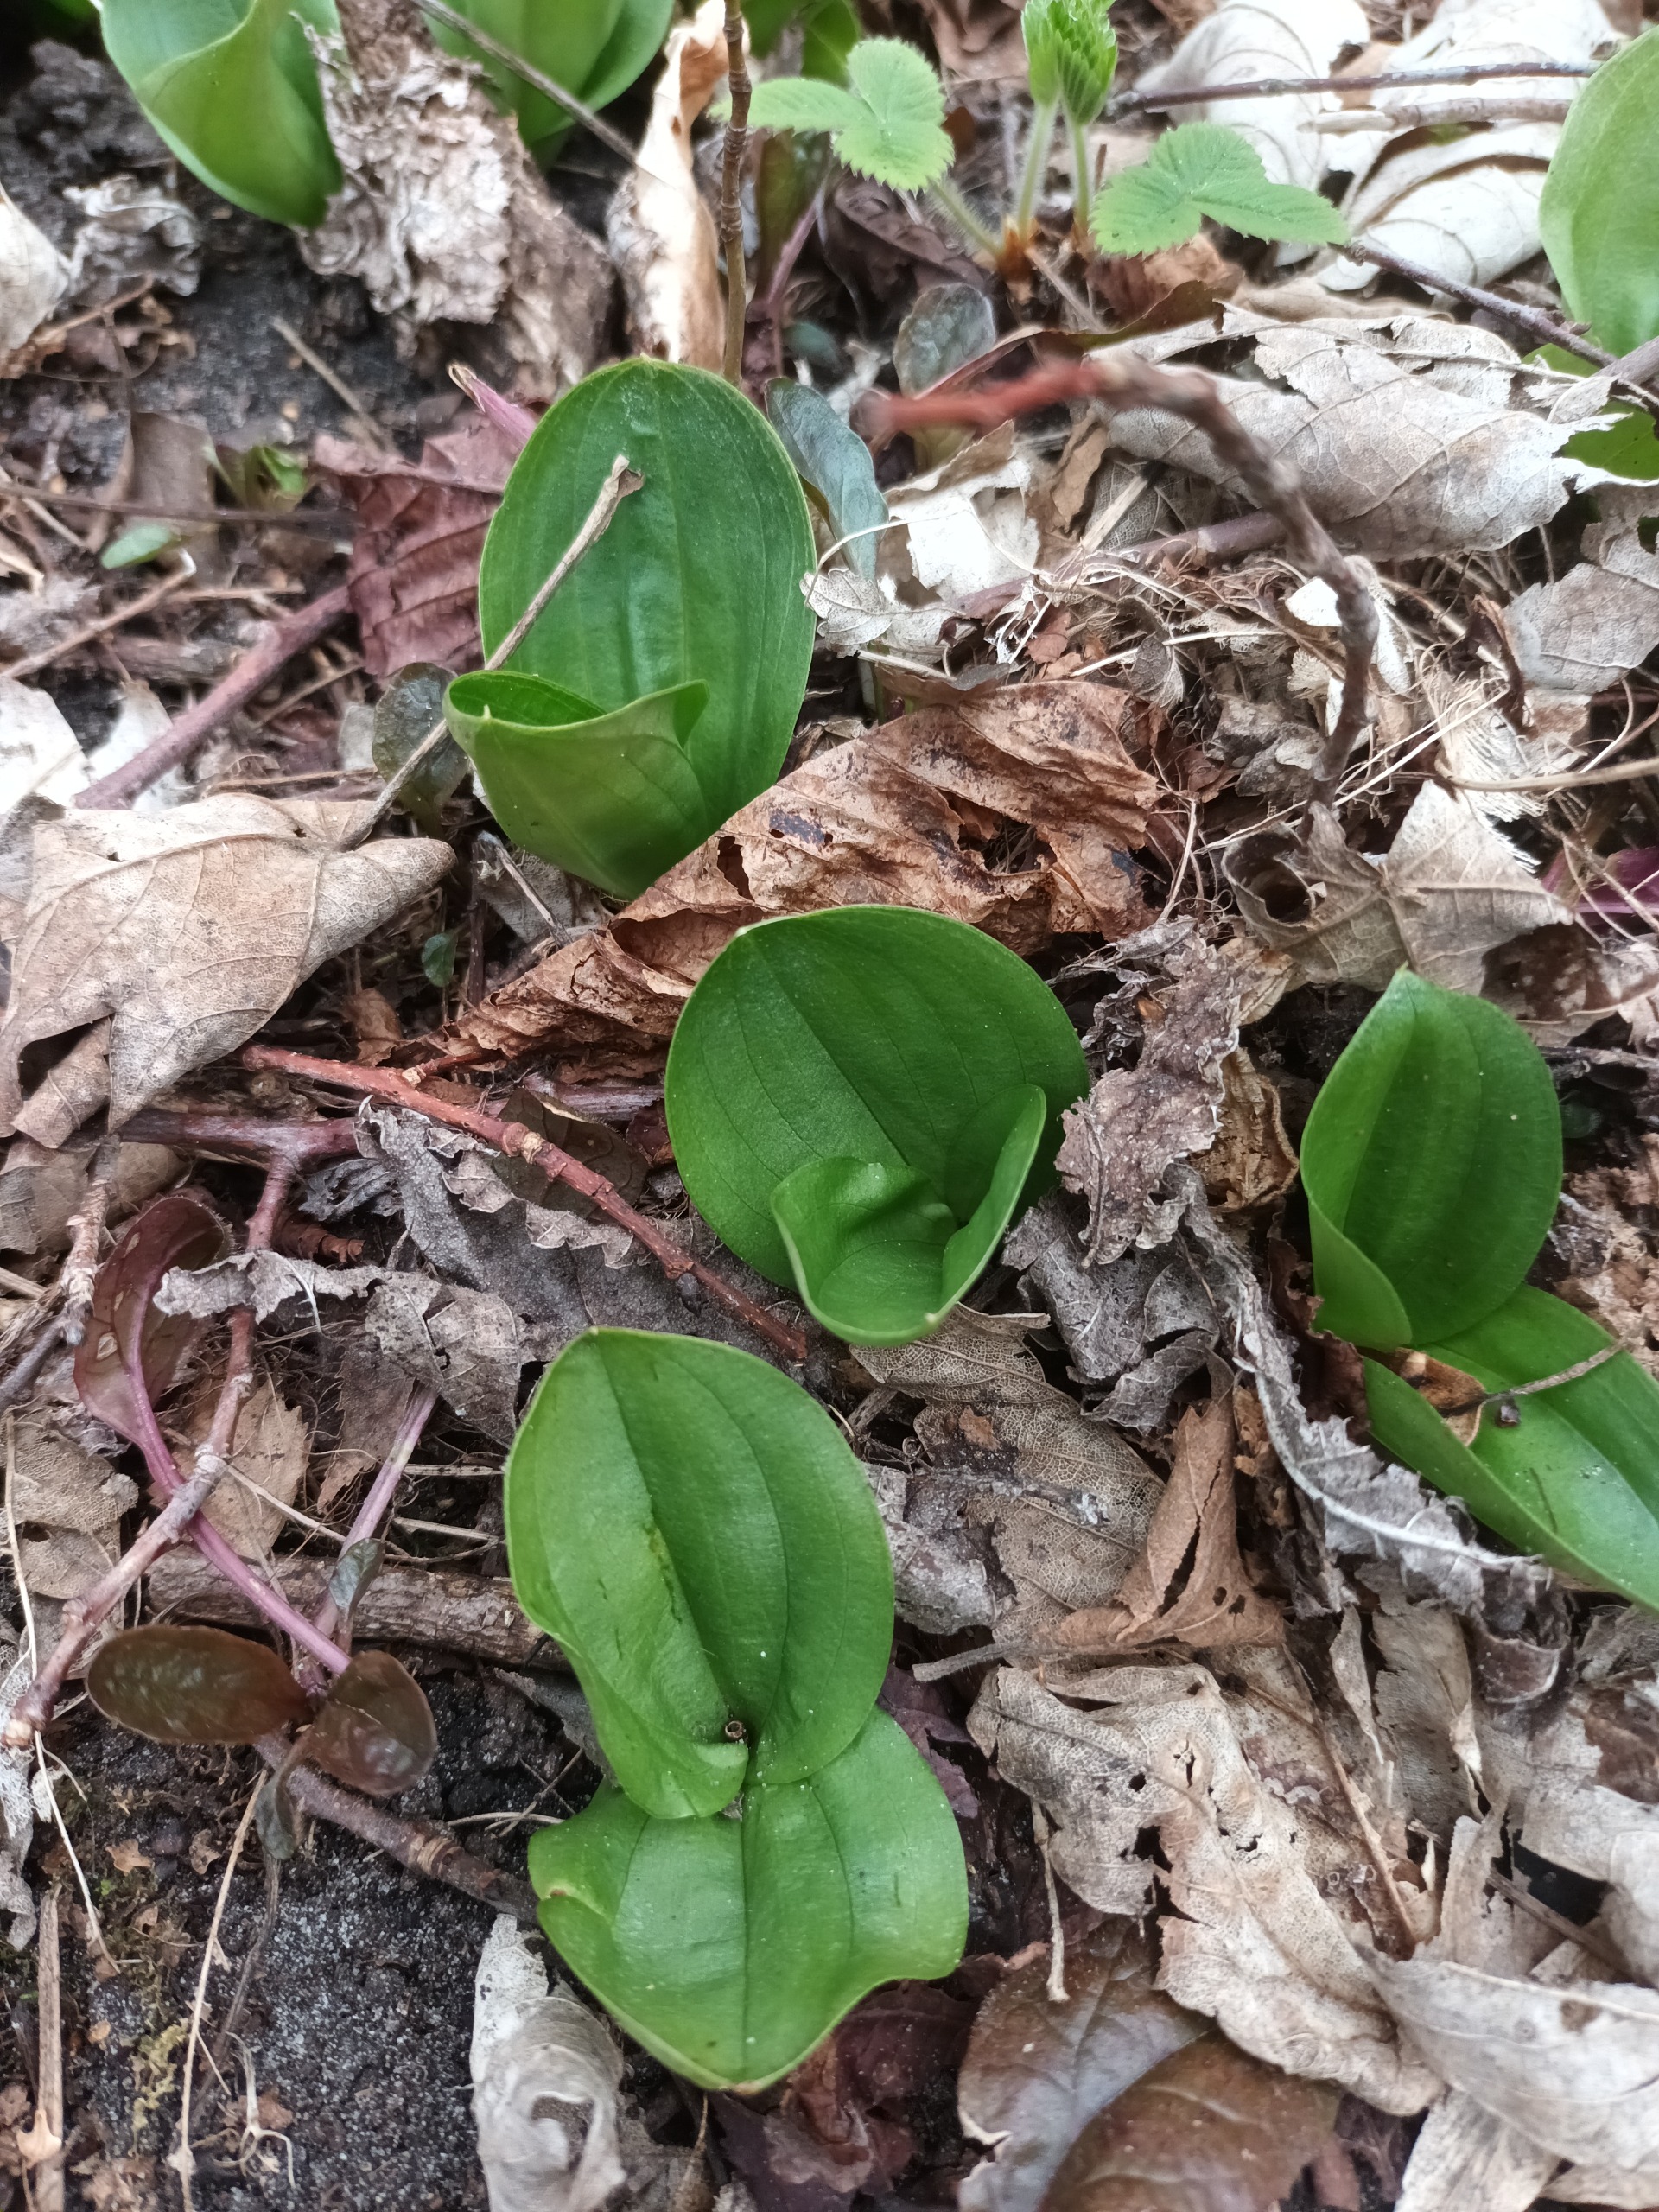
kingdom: Plantae
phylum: Tracheophyta
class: Liliopsida
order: Asparagales
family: Orchidaceae
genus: Neottia
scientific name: Neottia ovata
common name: Ægbladet fliglæbe
